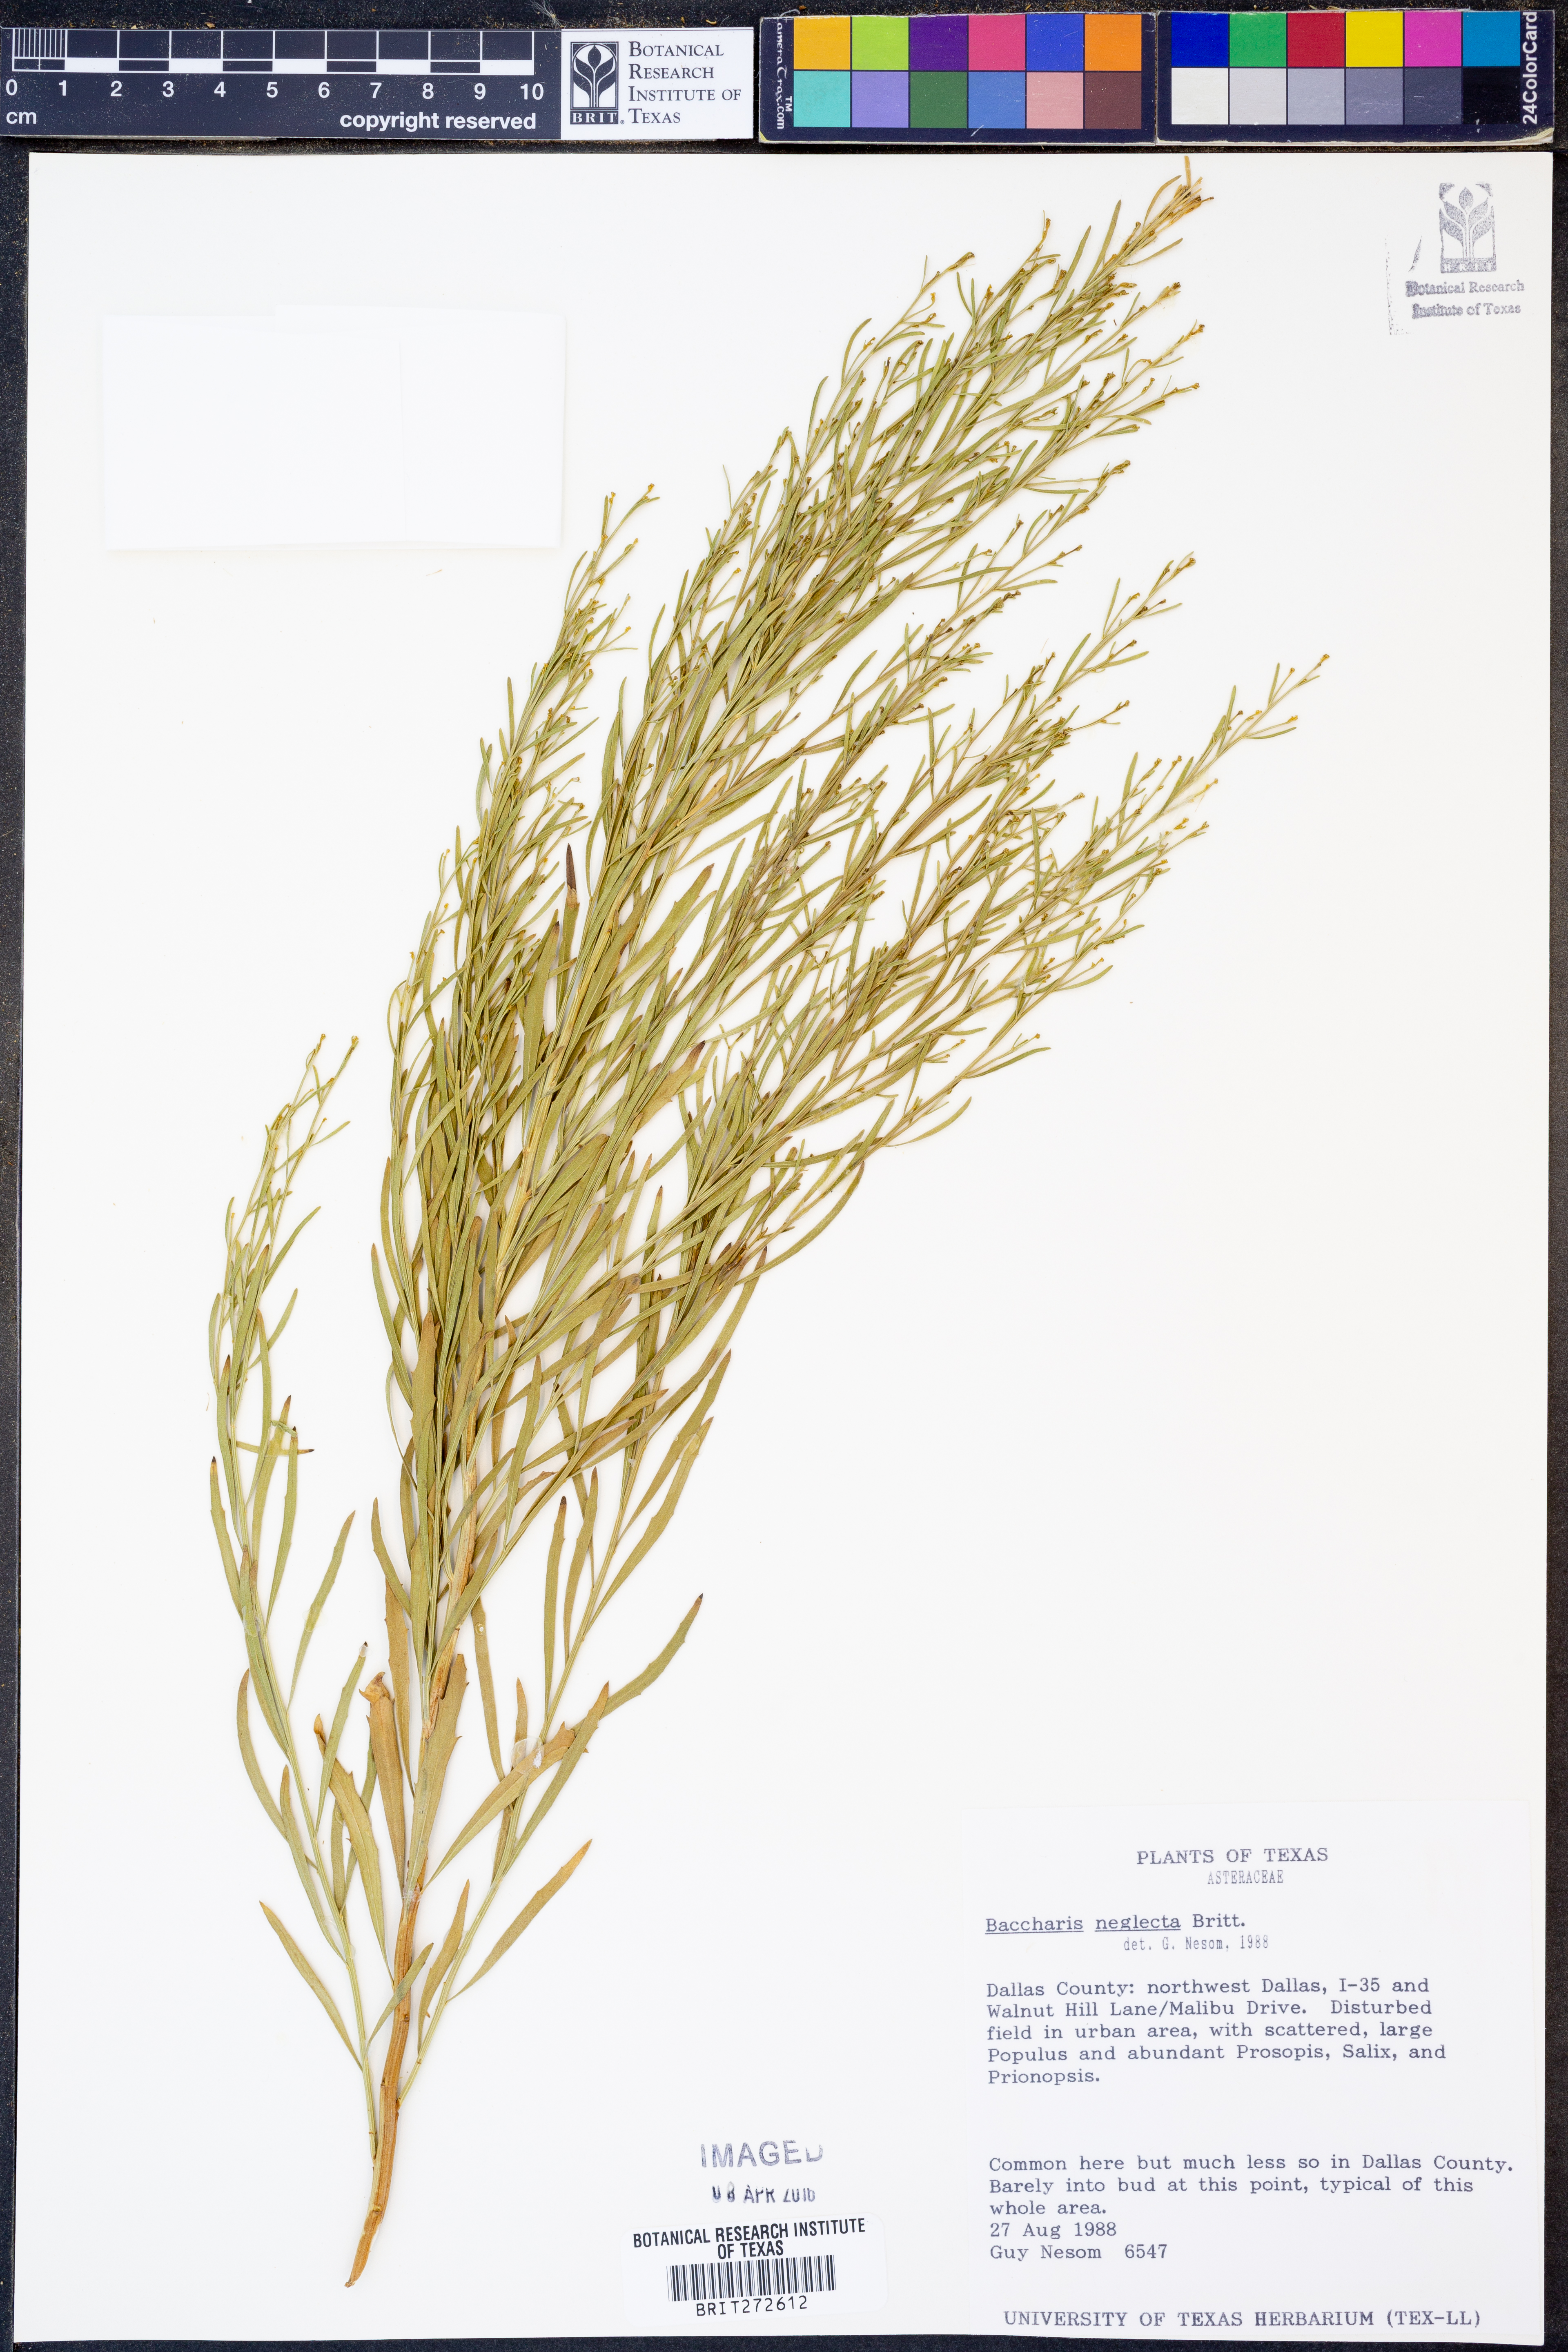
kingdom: Plantae
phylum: Tracheophyta
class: Magnoliopsida
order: Asterales
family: Asteraceae
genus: Baccharis
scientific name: Baccharis neglecta
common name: Roosevelt-weed
